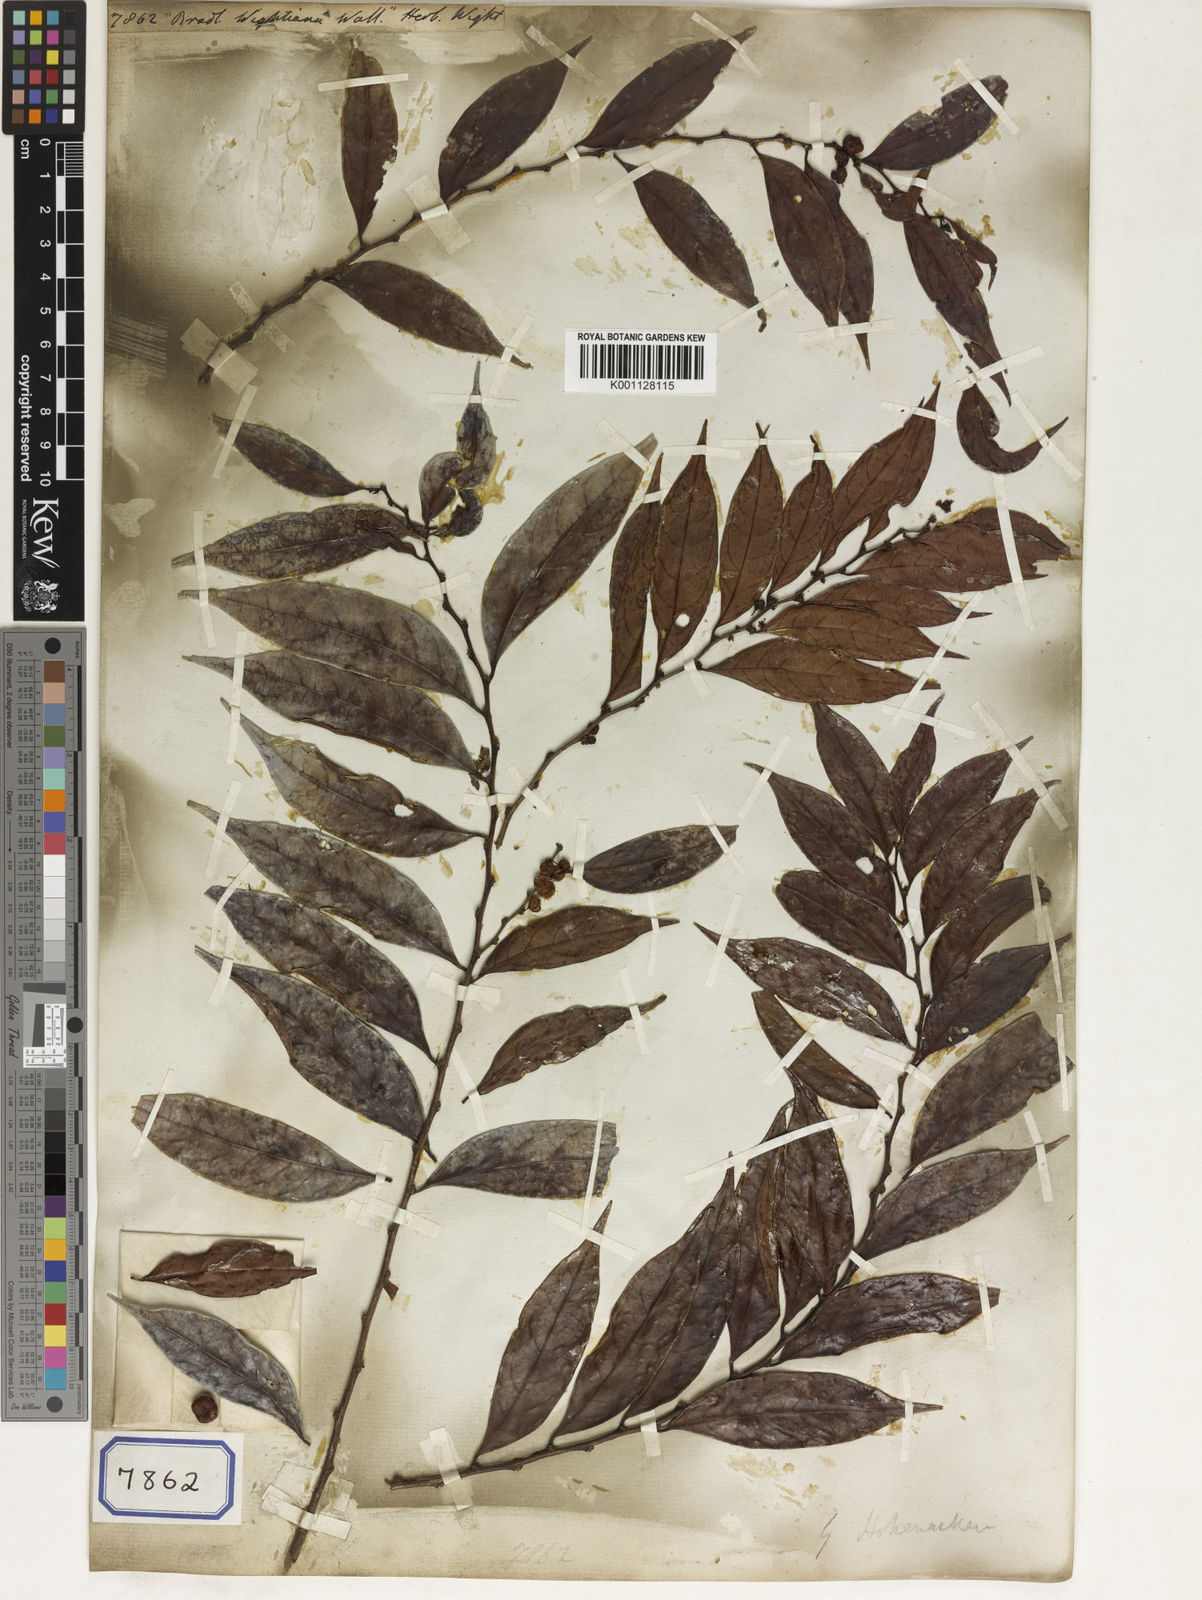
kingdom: Plantae
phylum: Tracheophyta
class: Magnoliopsida
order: Malpighiales
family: Euphorbiaceae
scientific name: Euphorbiaceae
